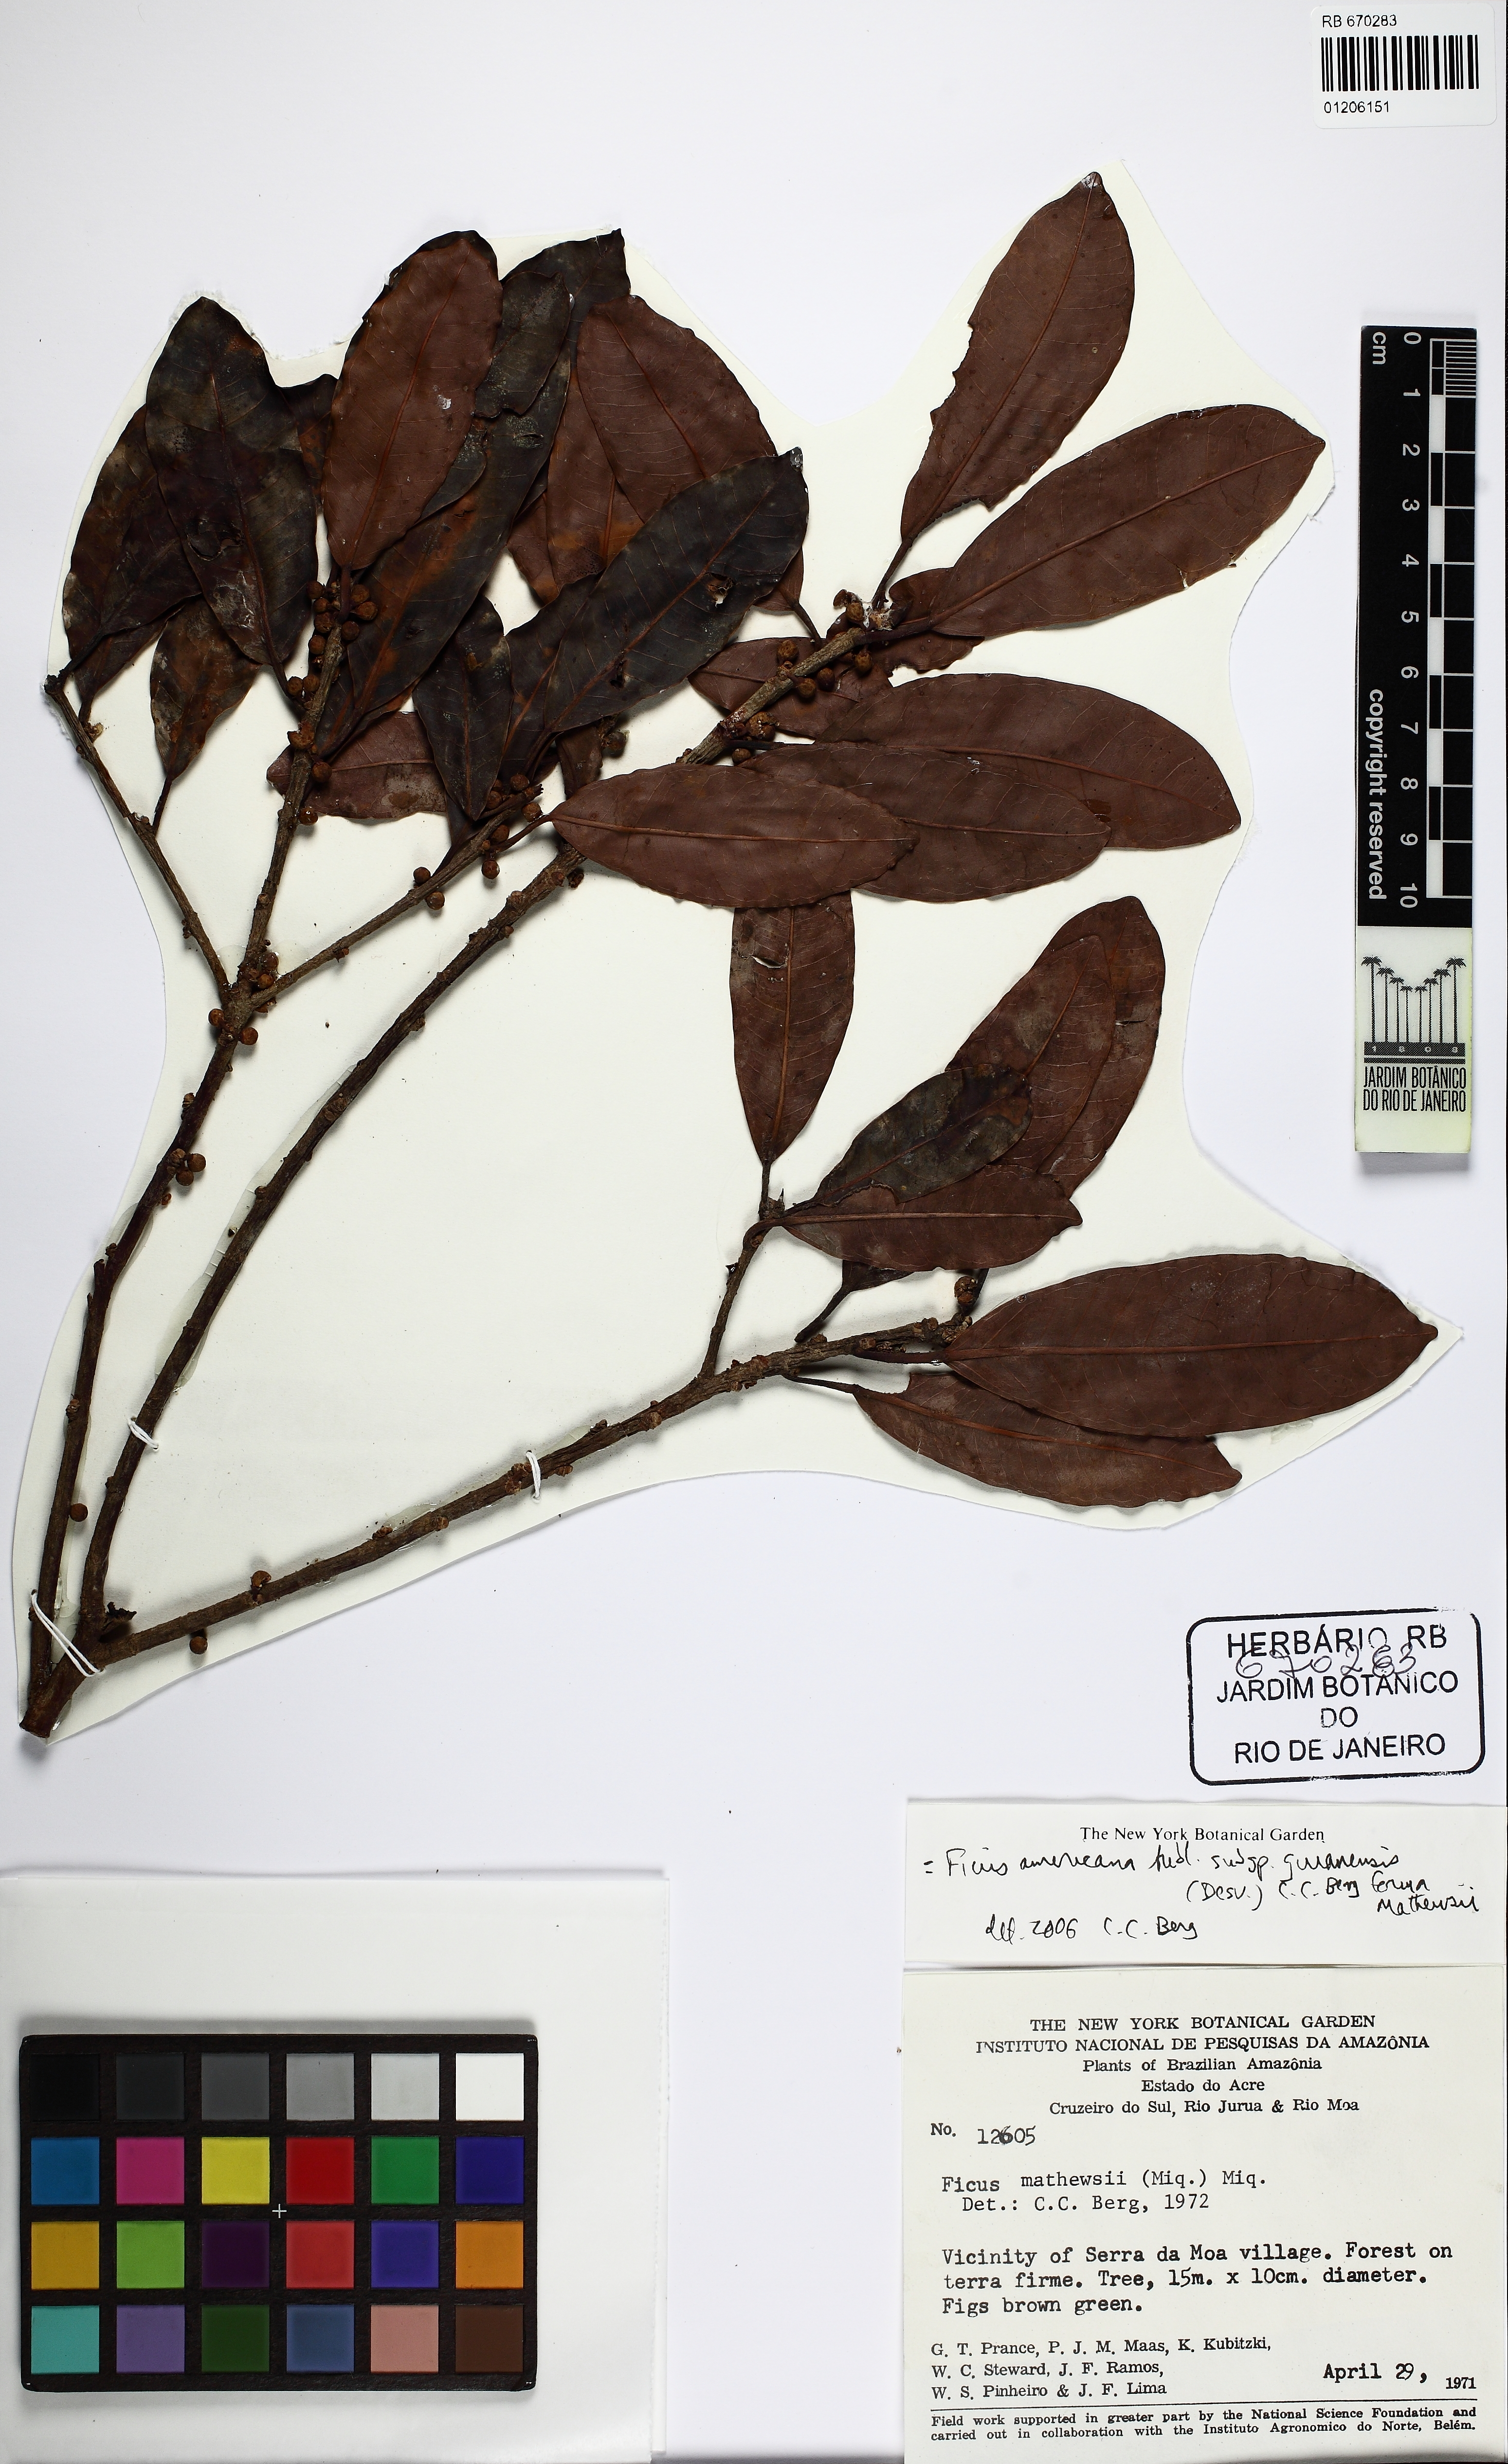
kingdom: Plantae
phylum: Tracheophyta
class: Magnoliopsida
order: Rosales
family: Moraceae
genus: Ficus
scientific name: Ficus mathewsii
